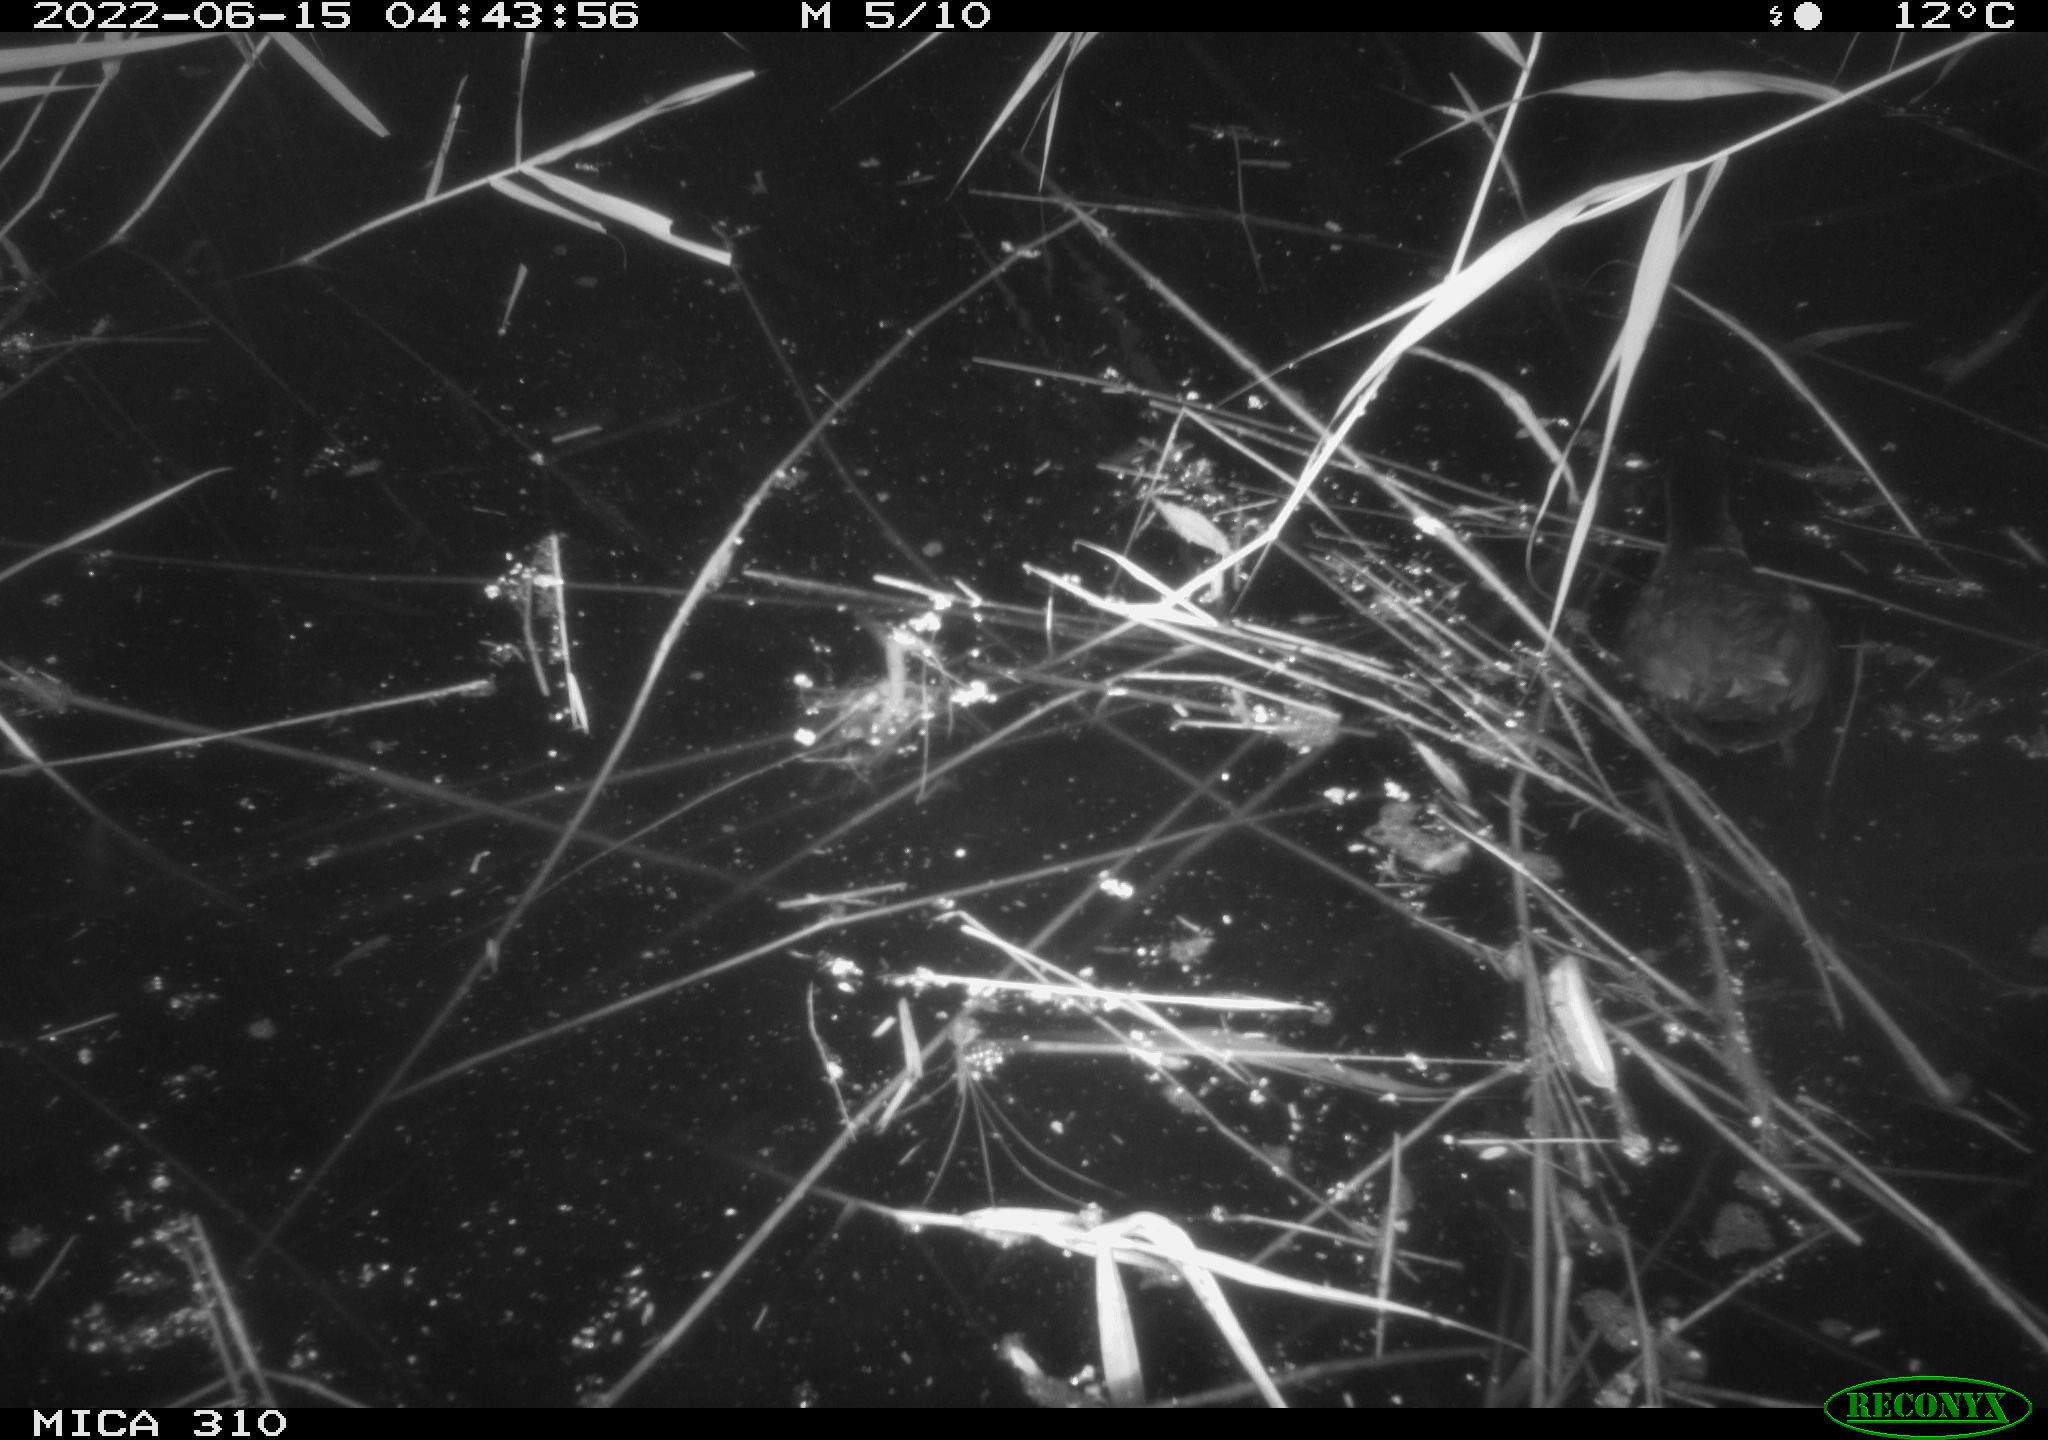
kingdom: Animalia
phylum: Chordata
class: Aves
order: Gruiformes
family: Rallidae
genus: Fulica
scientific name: Fulica atra
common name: Eurasian coot
